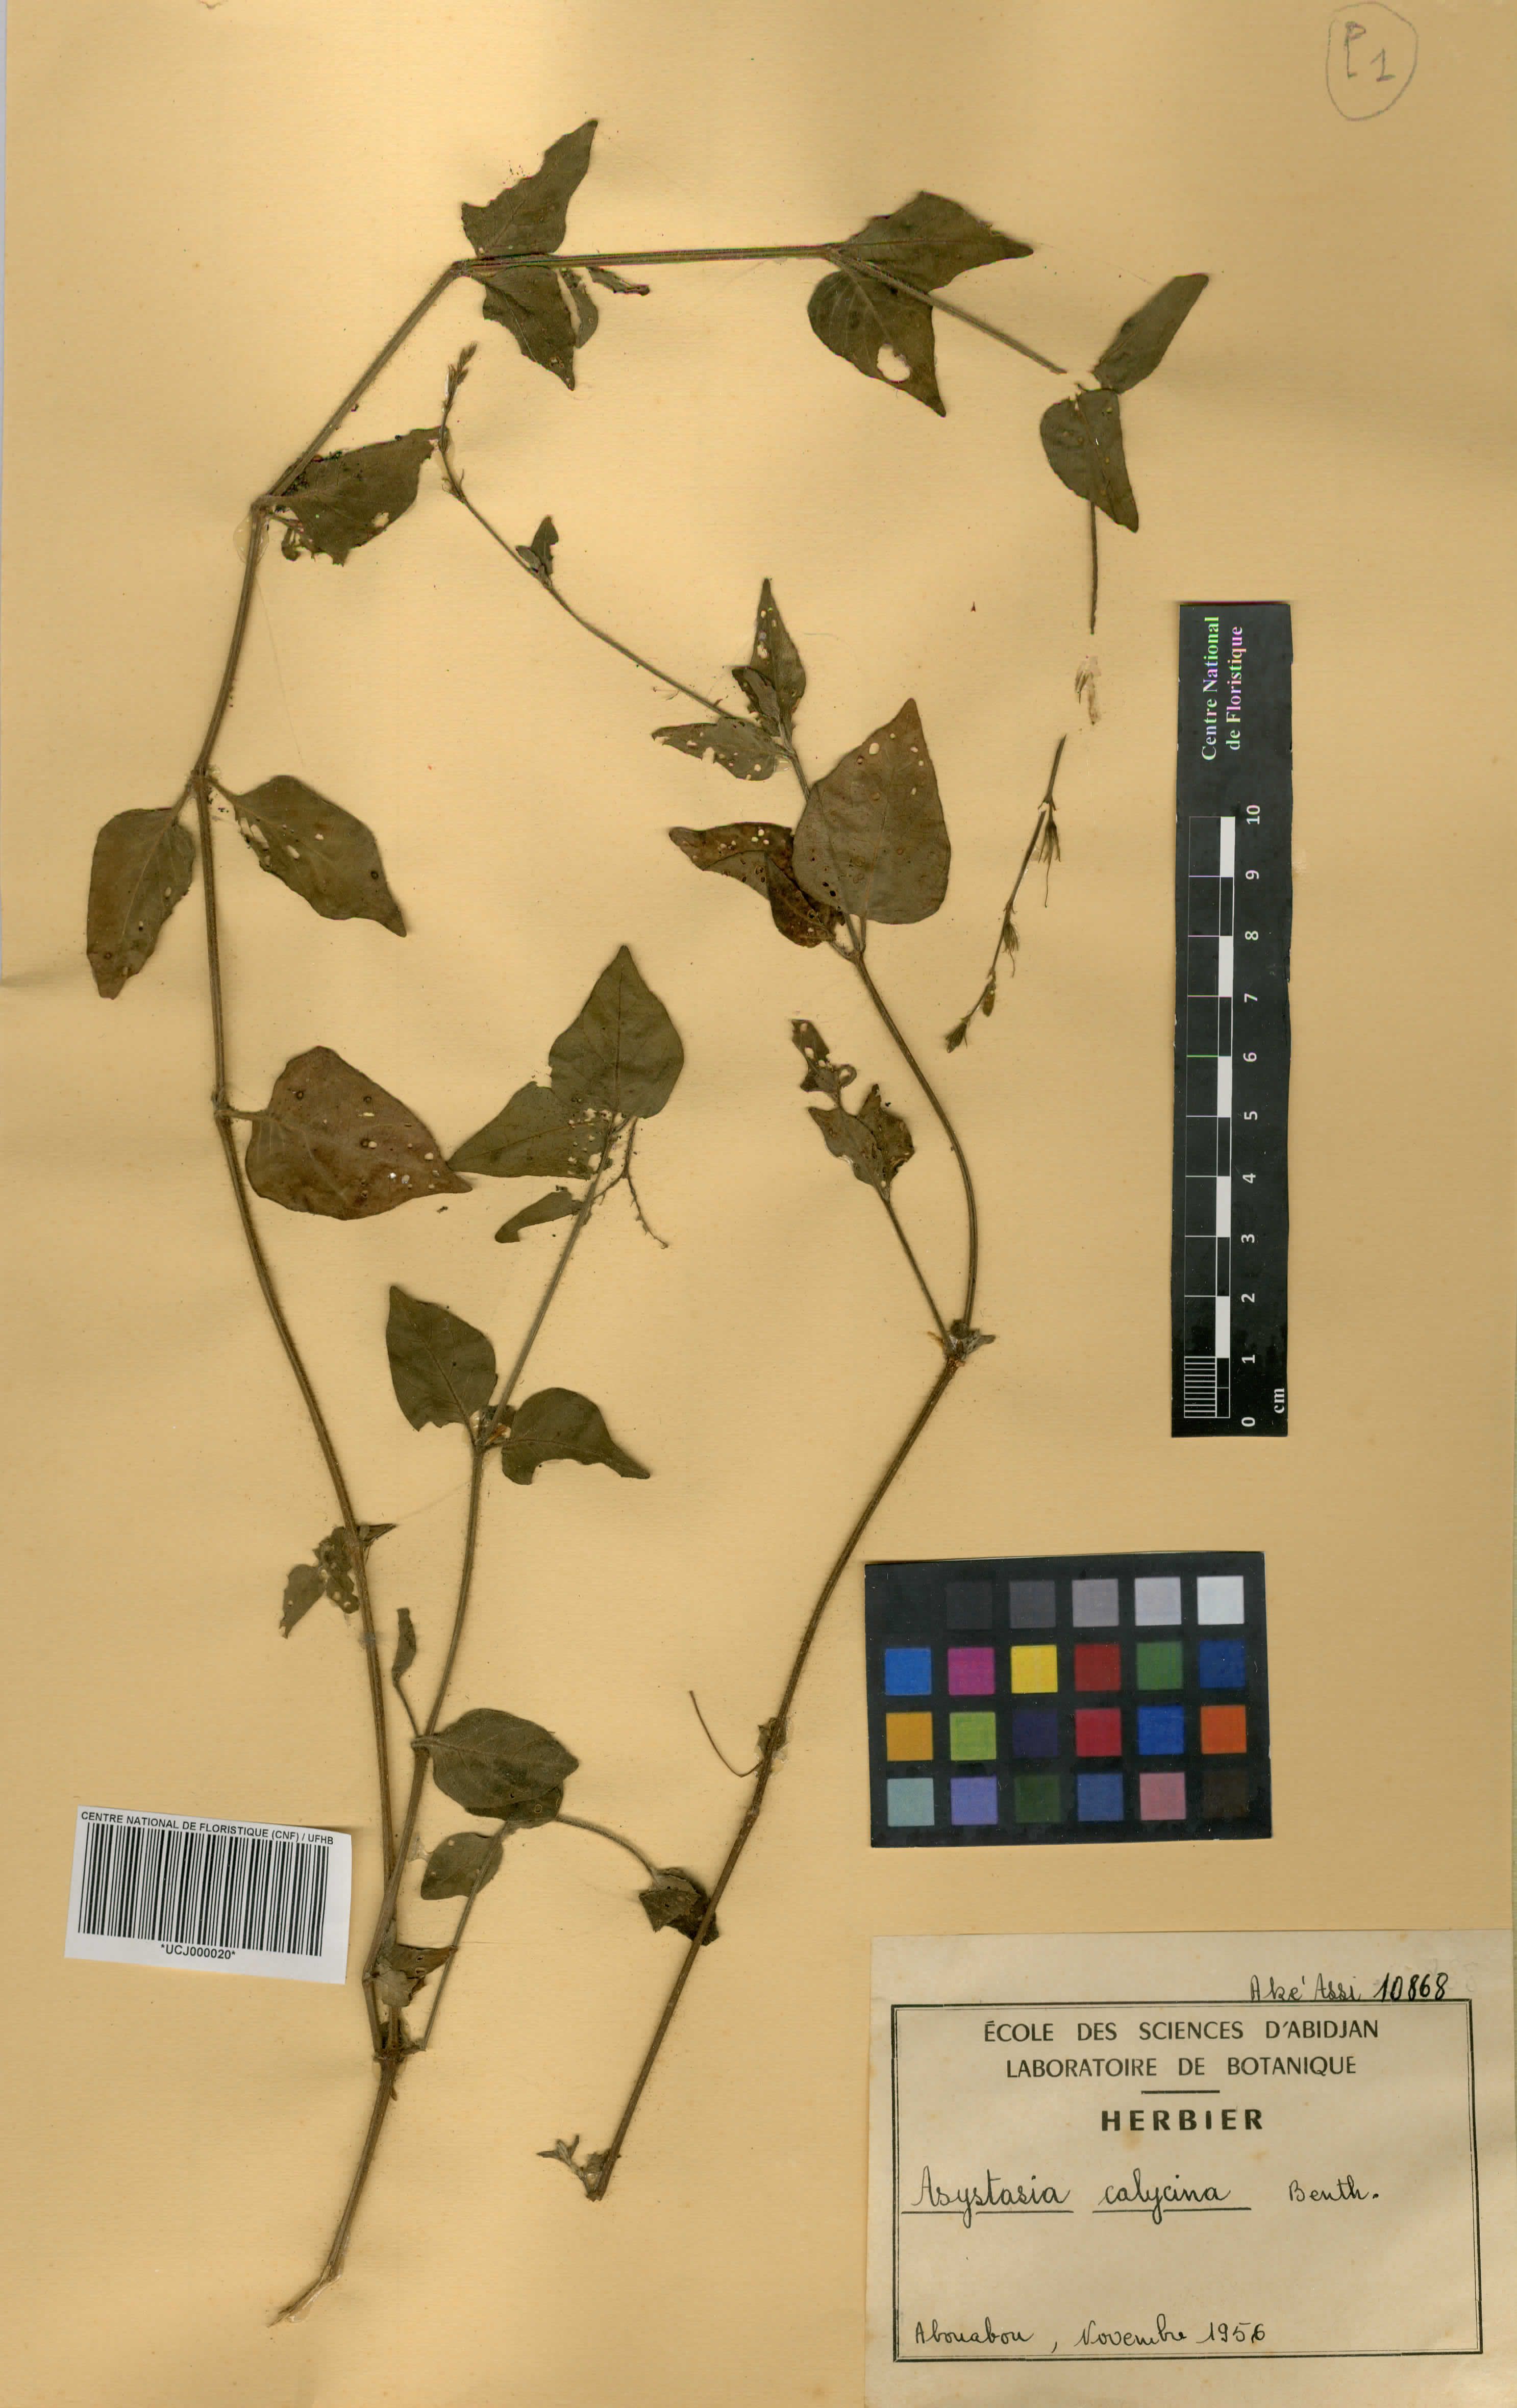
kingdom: Plantae
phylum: Tracheophyta
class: Magnoliopsida
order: Lamiales
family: Acanthaceae
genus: Asystasia
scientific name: Asystasia buettneri
